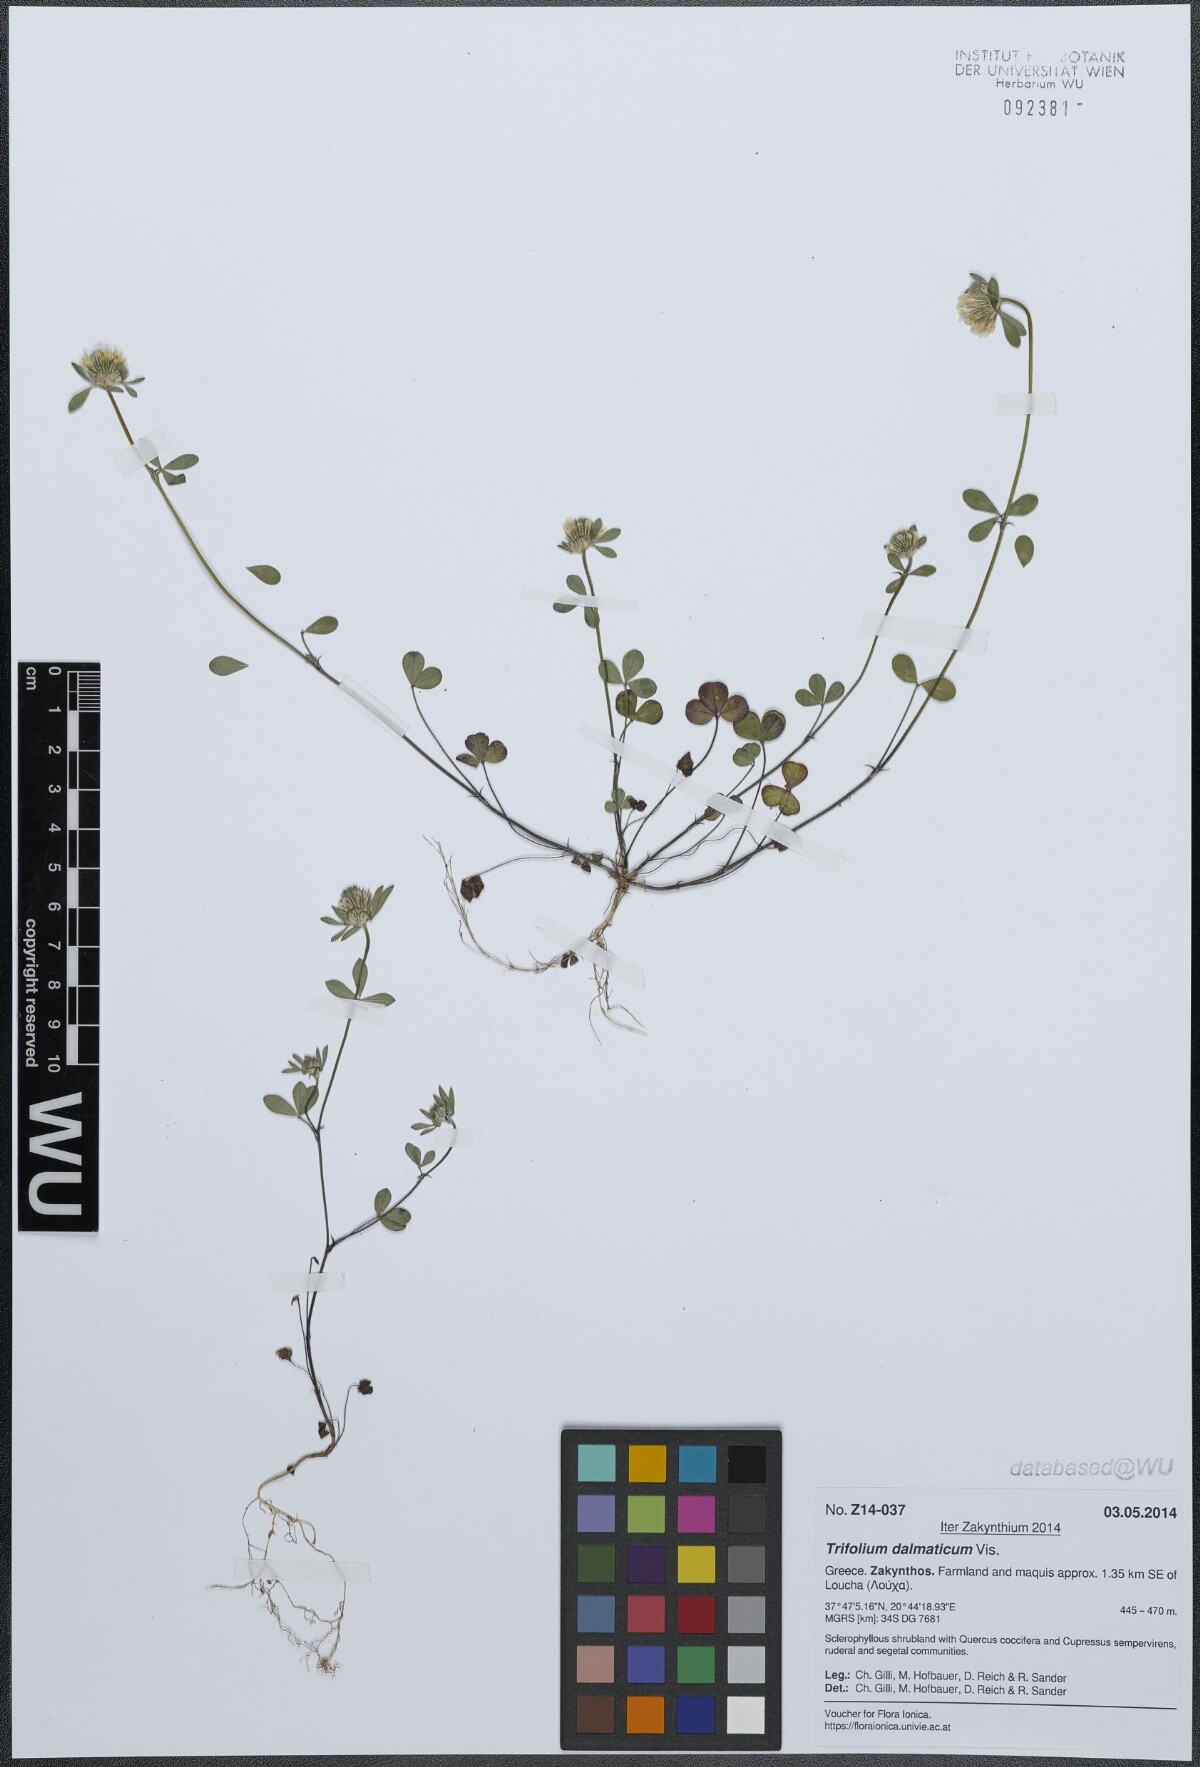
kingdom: Plantae
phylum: Tracheophyta
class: Magnoliopsida
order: Fabales
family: Fabaceae
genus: Trifolium
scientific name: Trifolium dalmaticum
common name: Dalmatian clover
